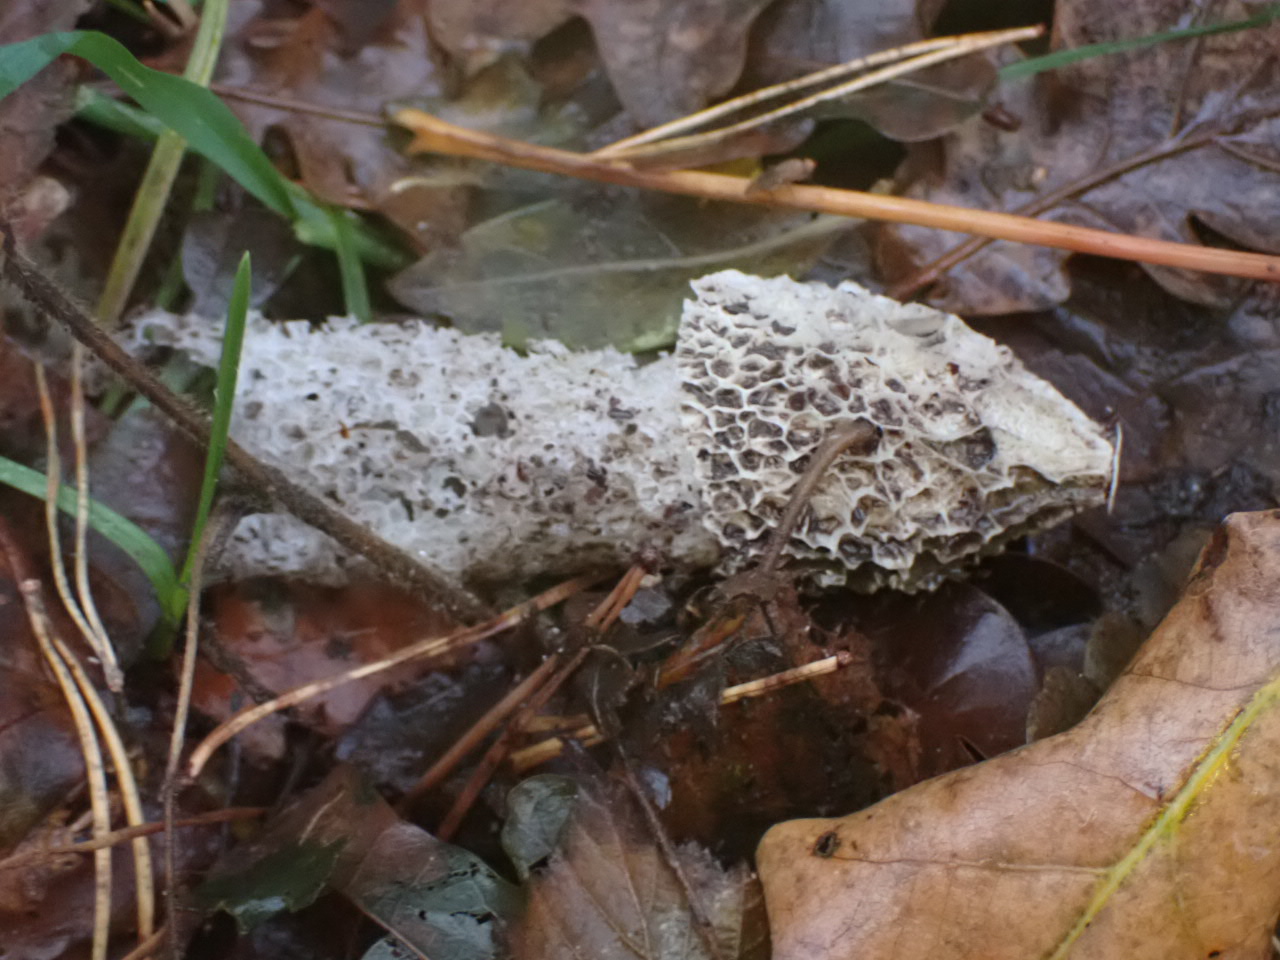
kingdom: Fungi
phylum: Basidiomycota
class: Agaricomycetes
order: Phallales
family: Phallaceae
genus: Phallus
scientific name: Phallus impudicus
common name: almindelig stinksvamp
